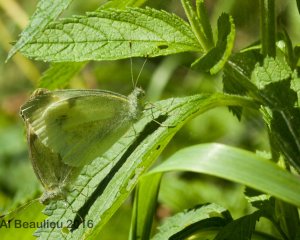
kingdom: Animalia
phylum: Arthropoda
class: Insecta
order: Lepidoptera
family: Pieridae
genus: Pieris
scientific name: Pieris rapae
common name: Cabbage White
